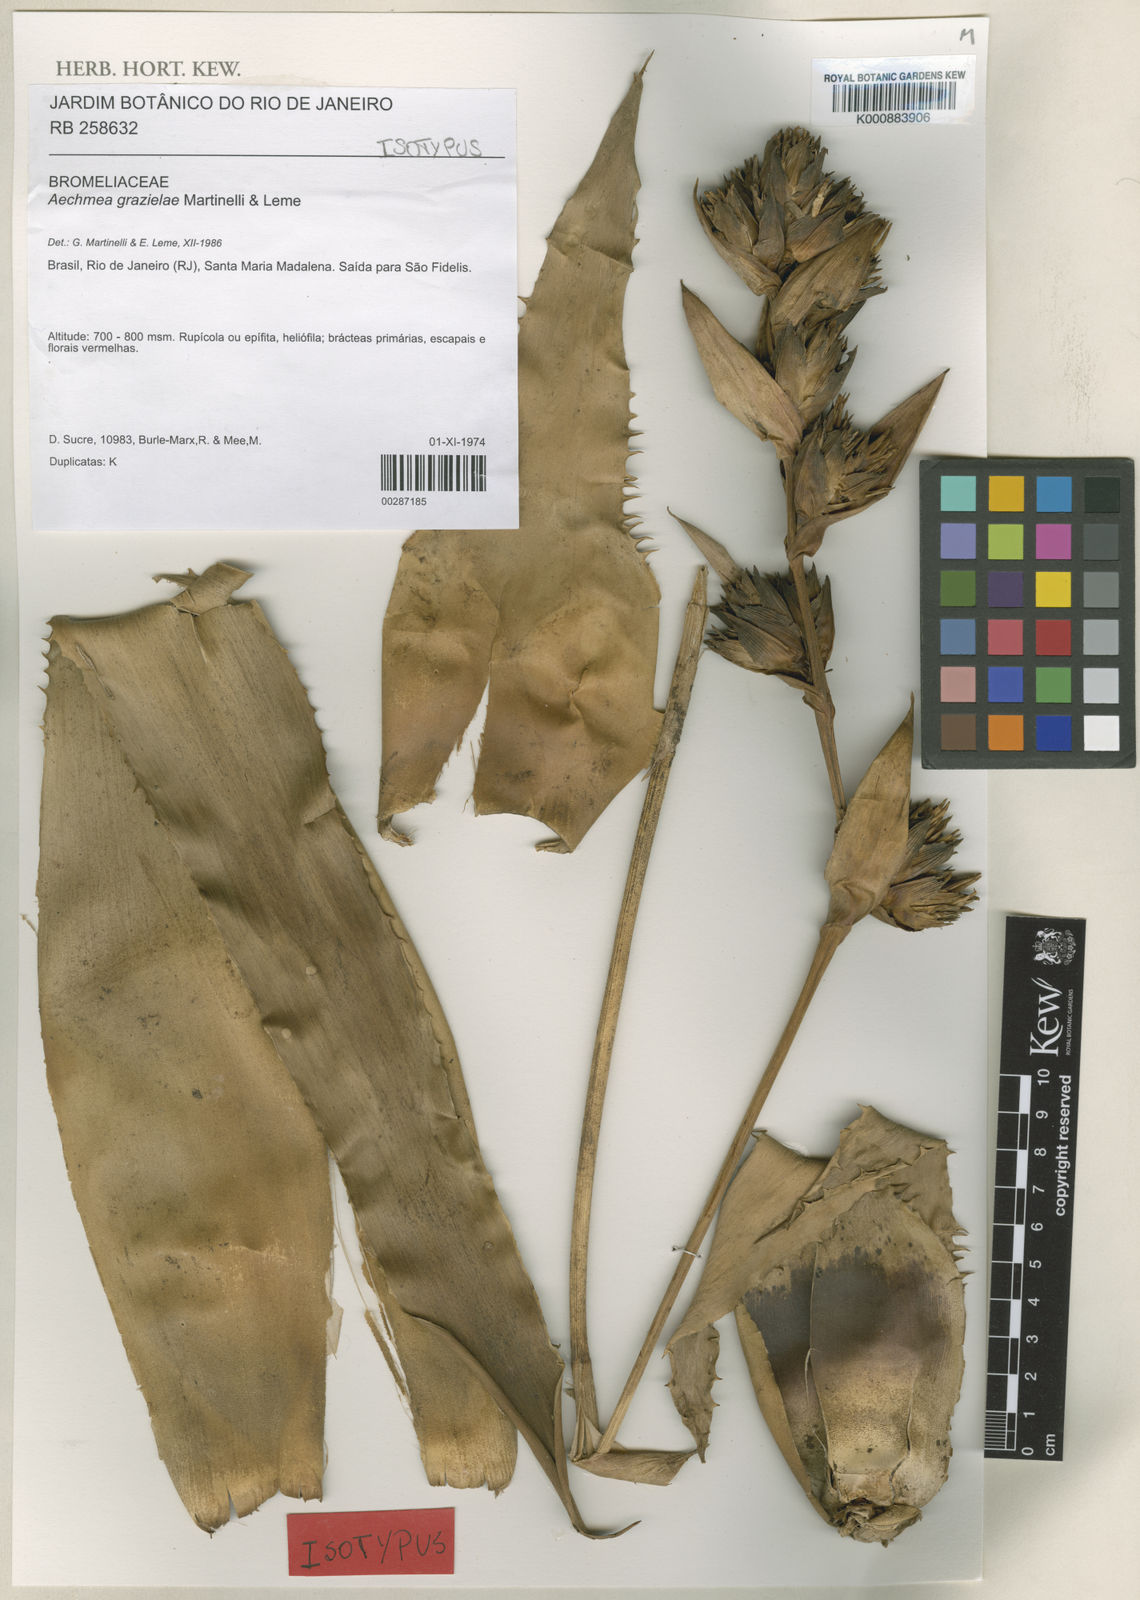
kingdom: Plantae
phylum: Tracheophyta
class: Liliopsida
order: Poales
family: Bromeliaceae
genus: Aechmea
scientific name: Aechmea grazielae
